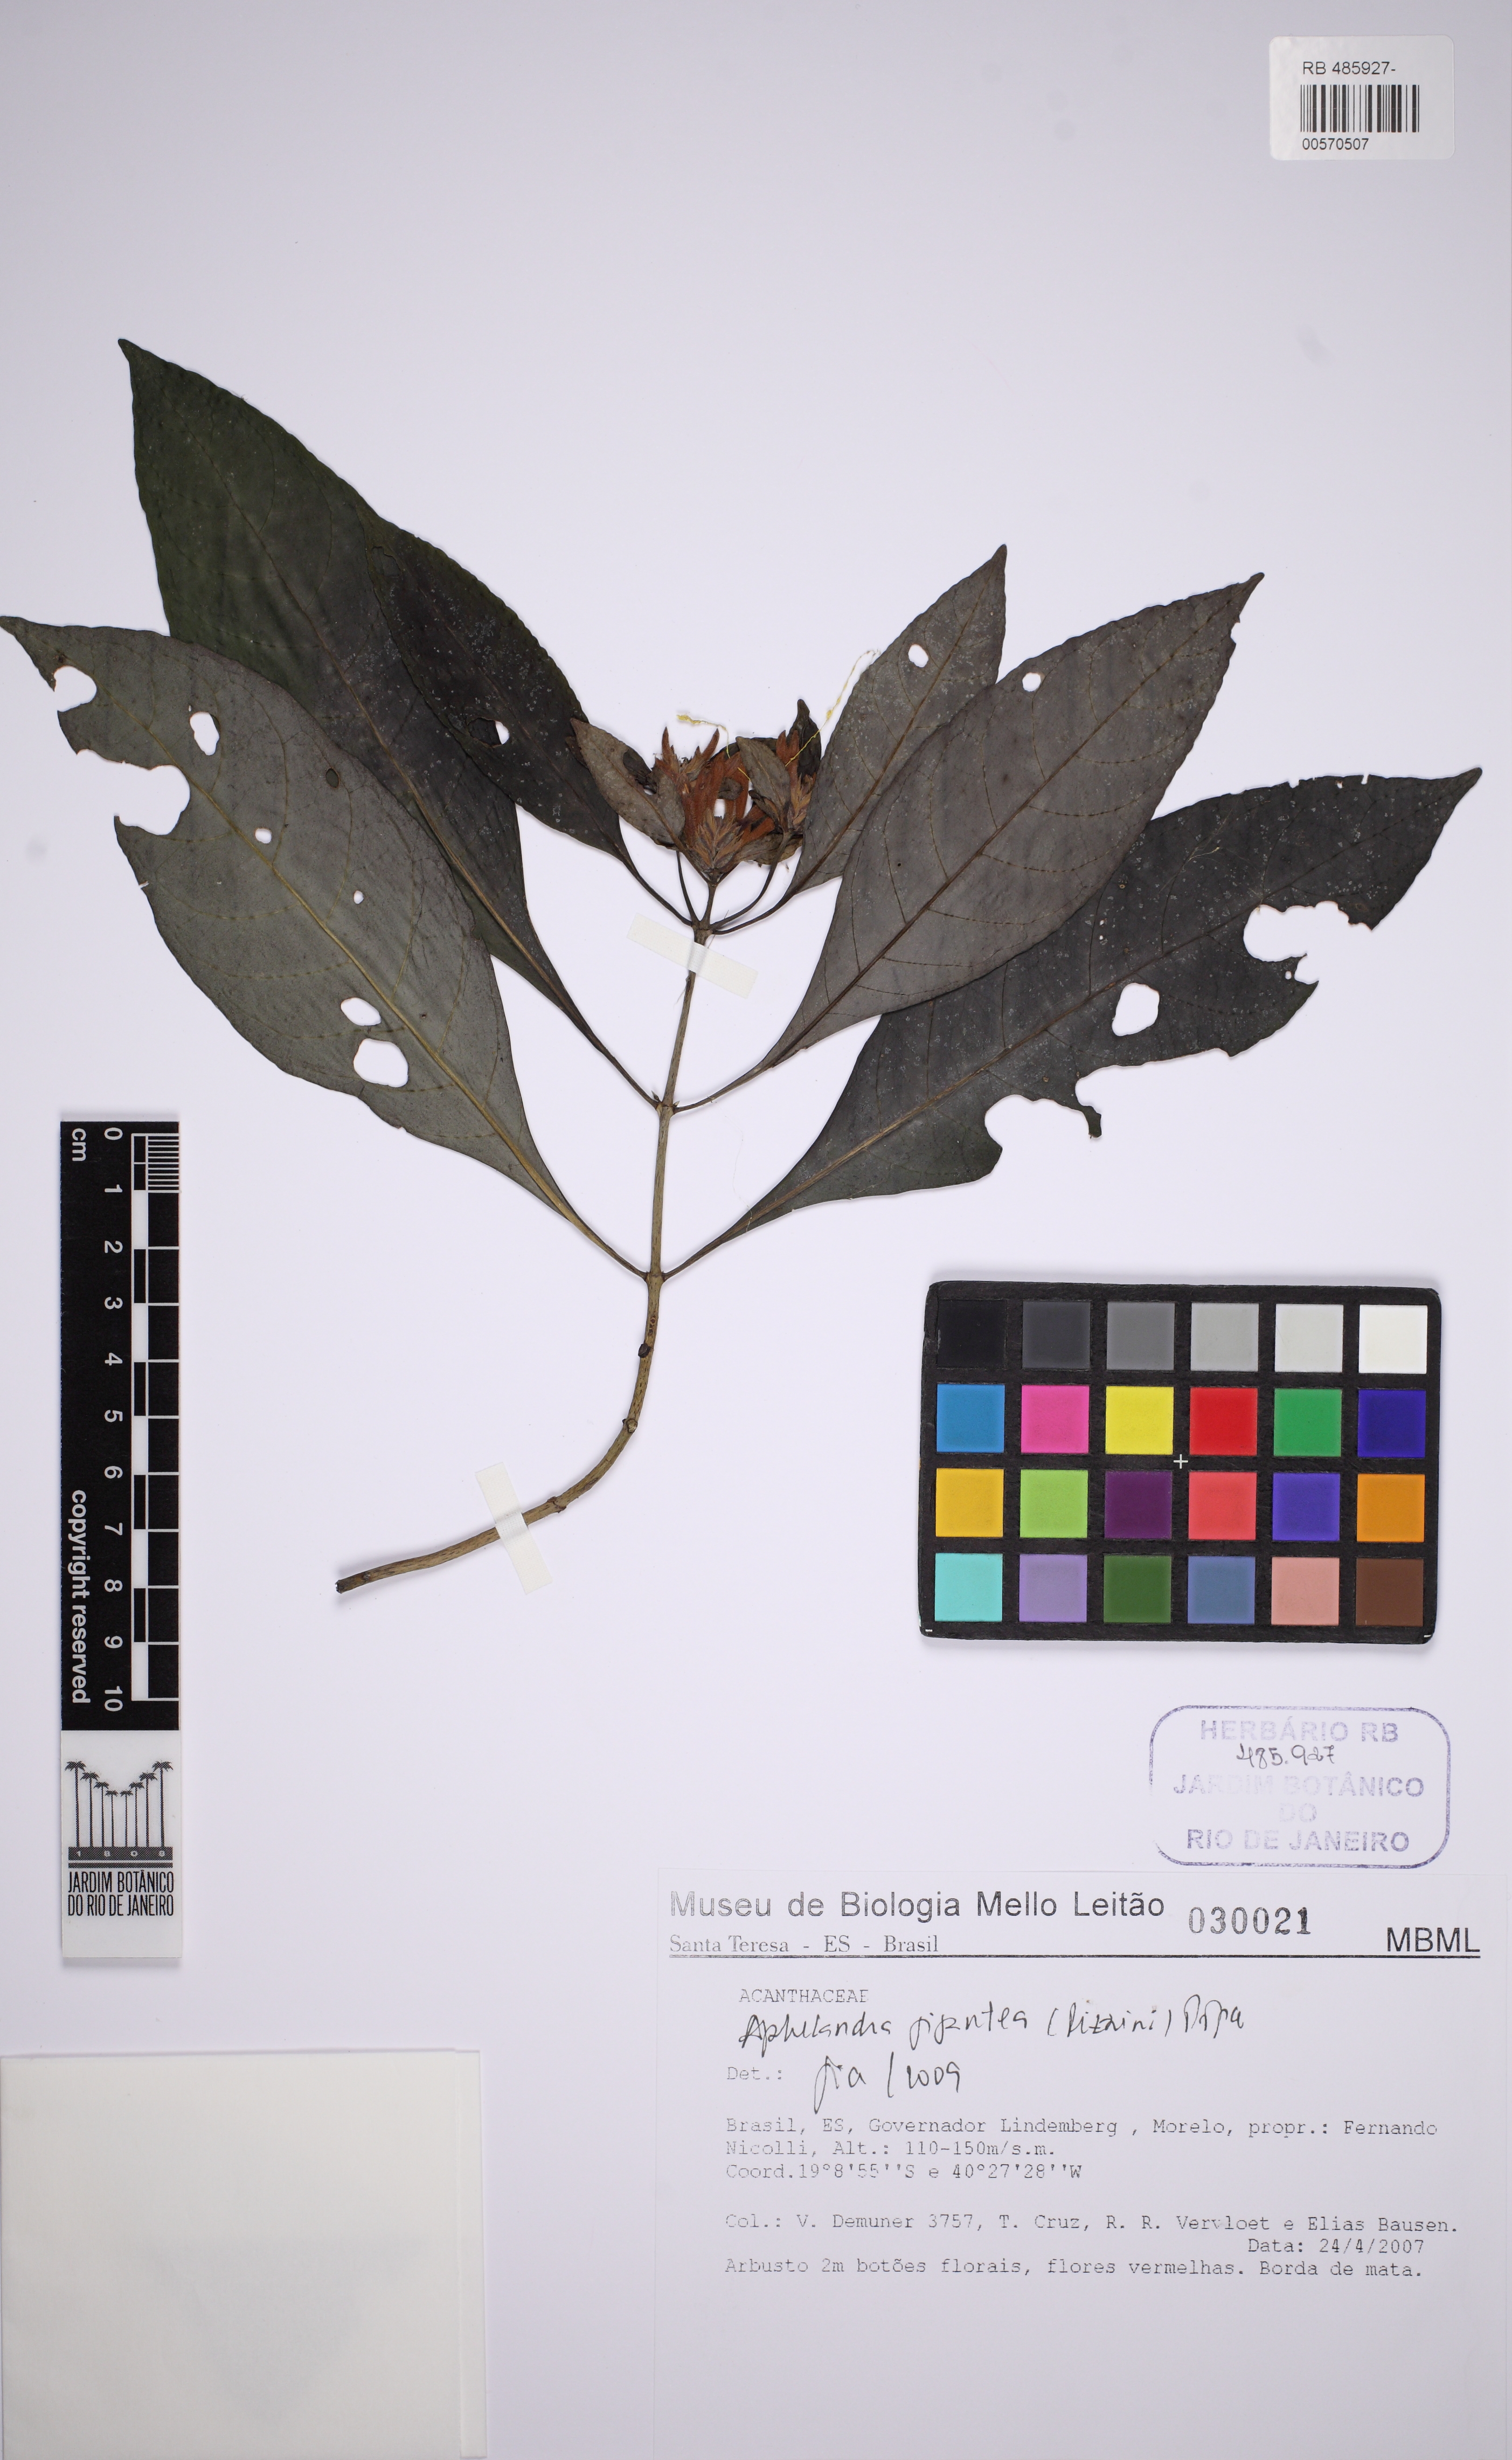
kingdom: Plantae
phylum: Tracheophyta
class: Magnoliopsida
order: Lamiales
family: Acanthaceae
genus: Aphelandra
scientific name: Aphelandra gigantea
